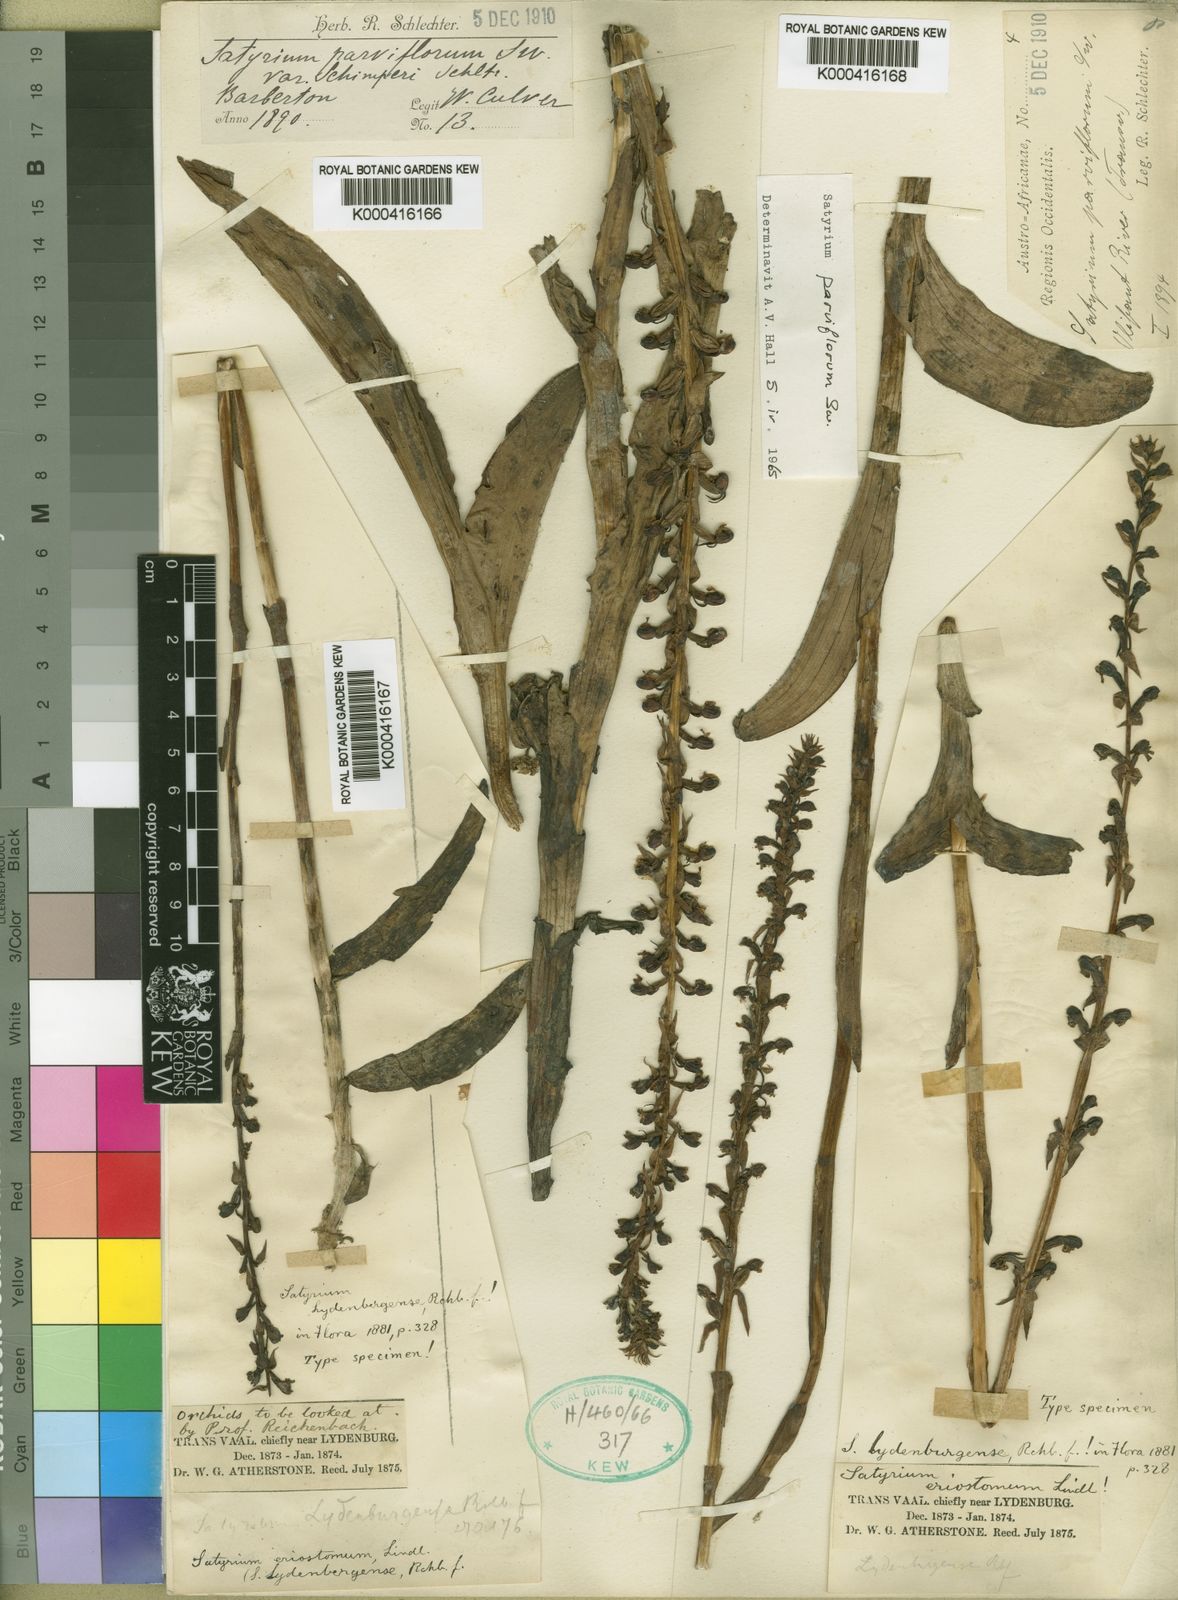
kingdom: Plantae
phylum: Tracheophyta
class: Liliopsida
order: Asparagales
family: Orchidaceae
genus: Satyrium
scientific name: Satyrium parviflorum
